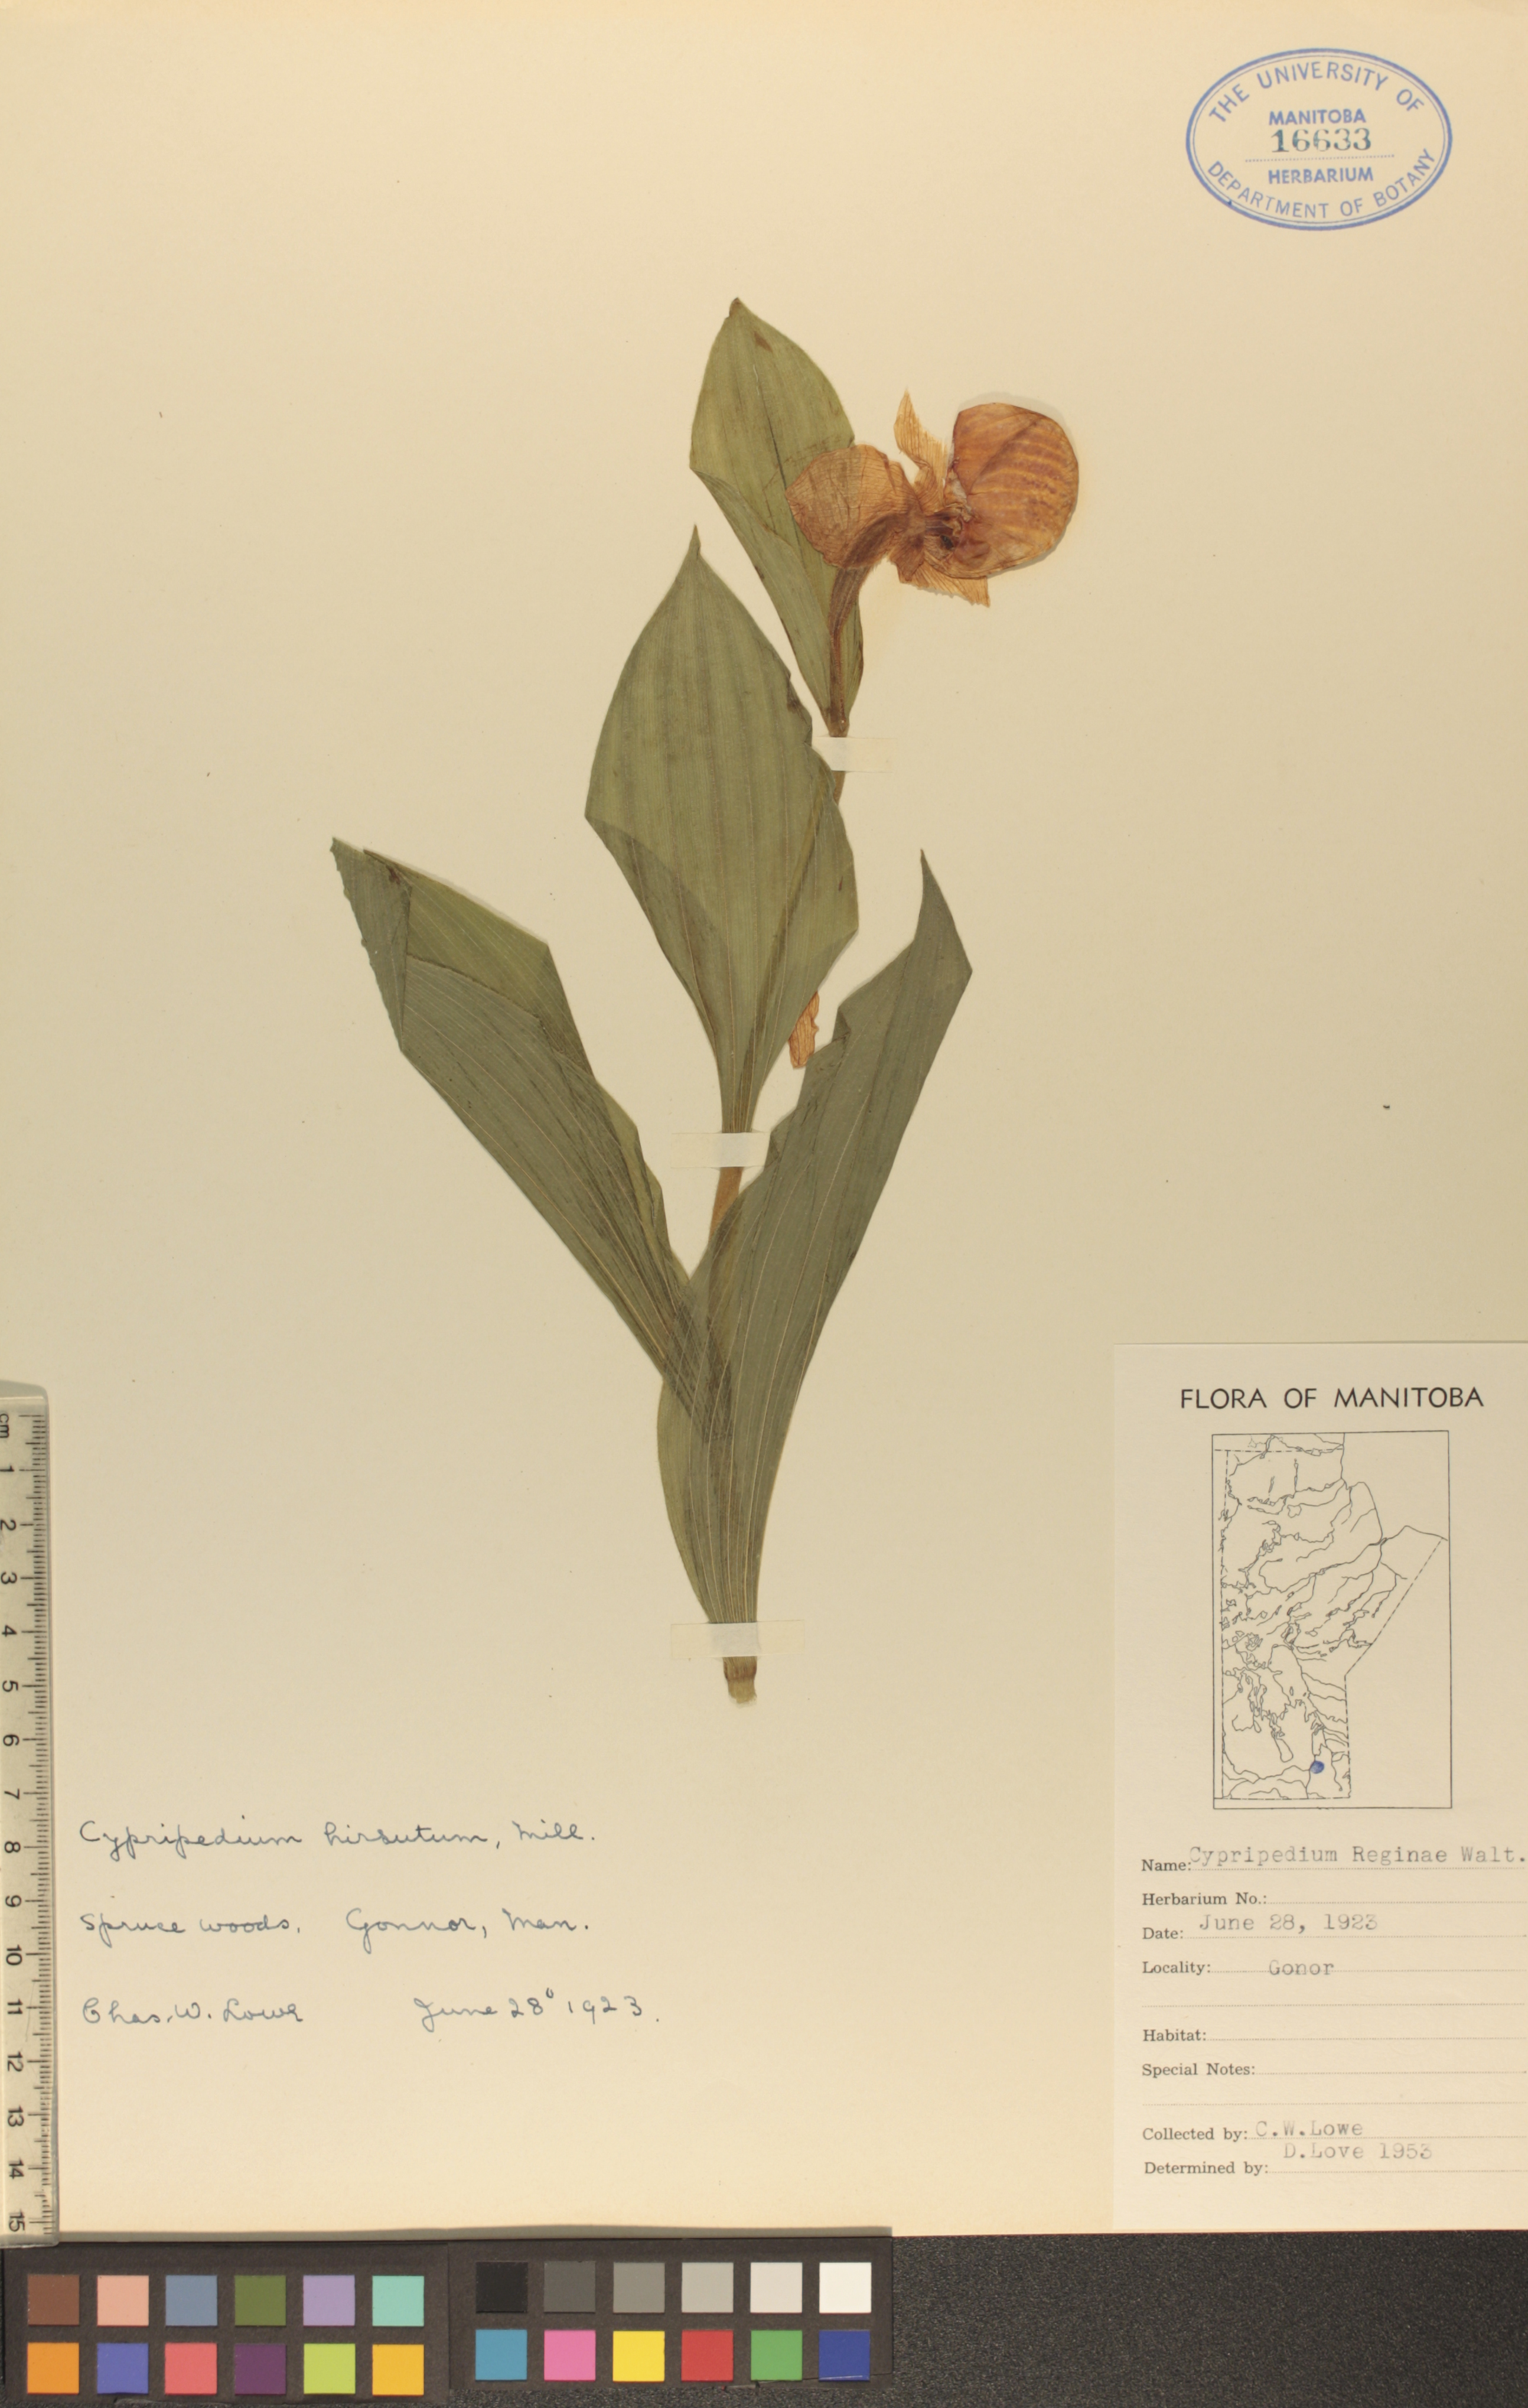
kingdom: Plantae
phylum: Tracheophyta
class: Liliopsida
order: Asparagales
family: Orchidaceae
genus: Cypripedium
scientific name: Cypripedium reginae
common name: Queen lady's-slipper
